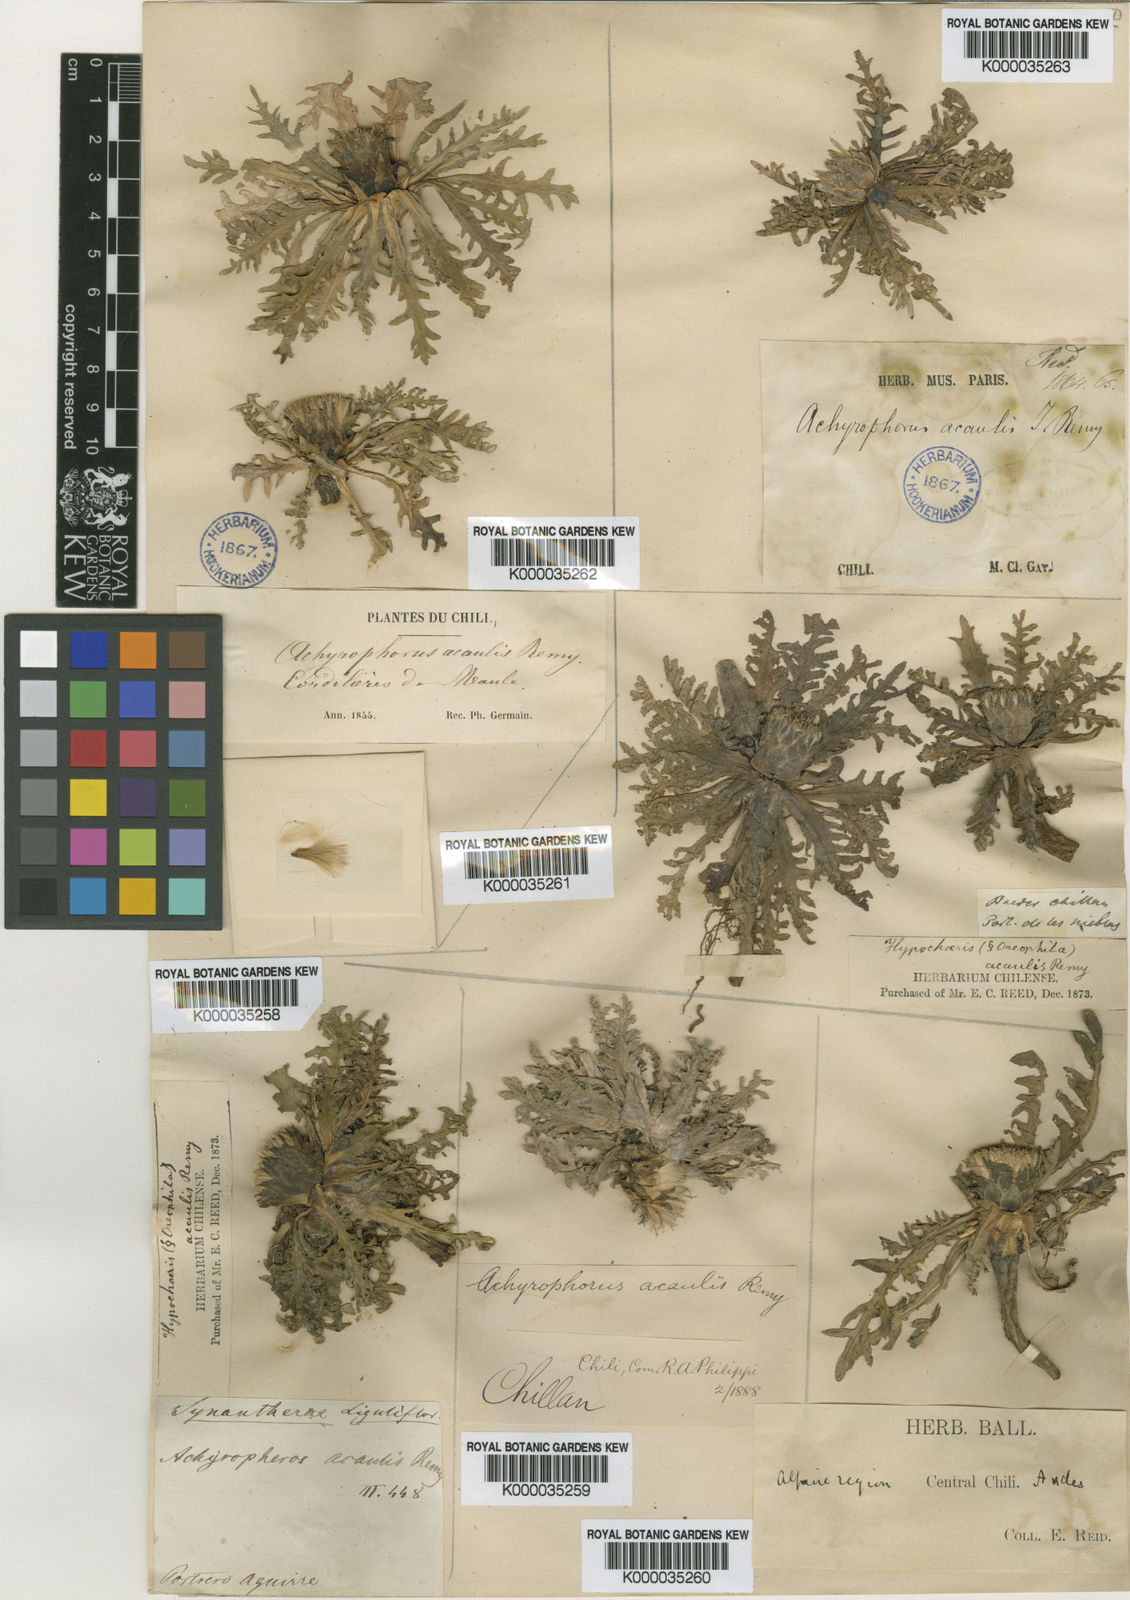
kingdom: Plantae
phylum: Tracheophyta
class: Magnoliopsida
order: Asterales
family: Asteraceae
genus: Hypochaeris
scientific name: Hypochaeris acaulis
